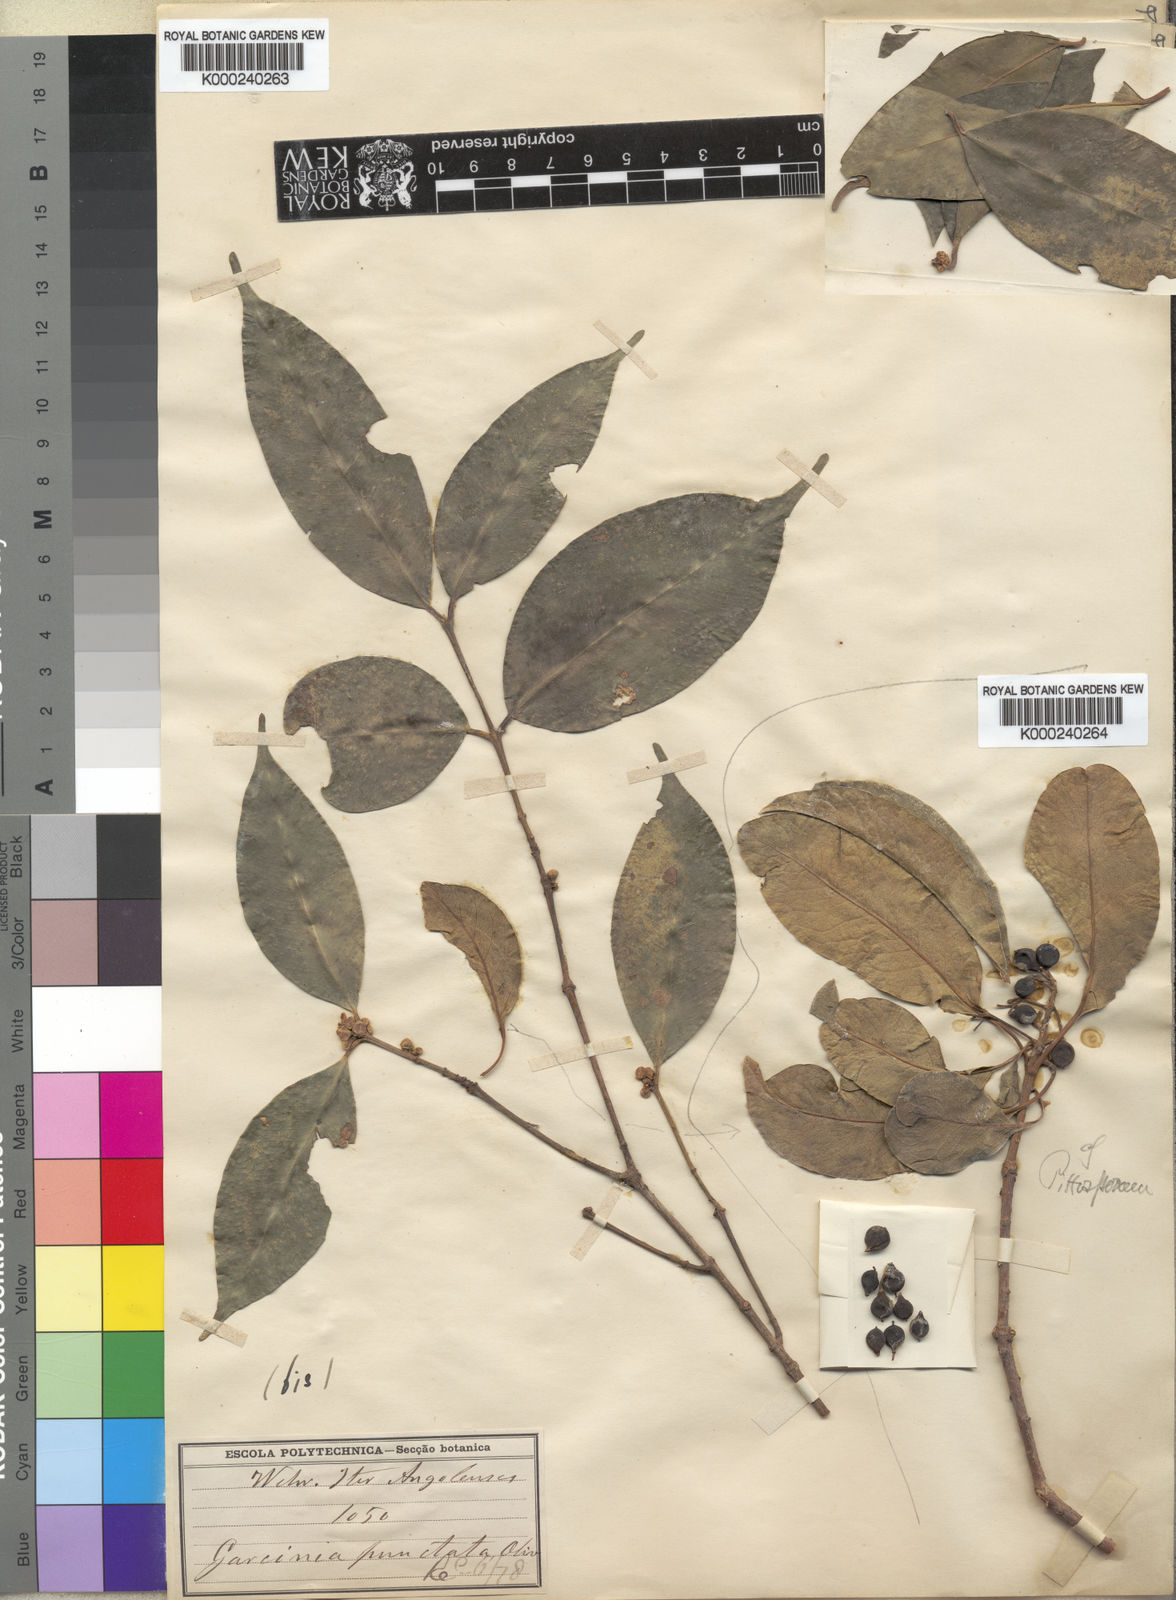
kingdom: Plantae
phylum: Tracheophyta
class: Magnoliopsida
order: Malpighiales
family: Clusiaceae
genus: Garcinia
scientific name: Garcinia punctata
